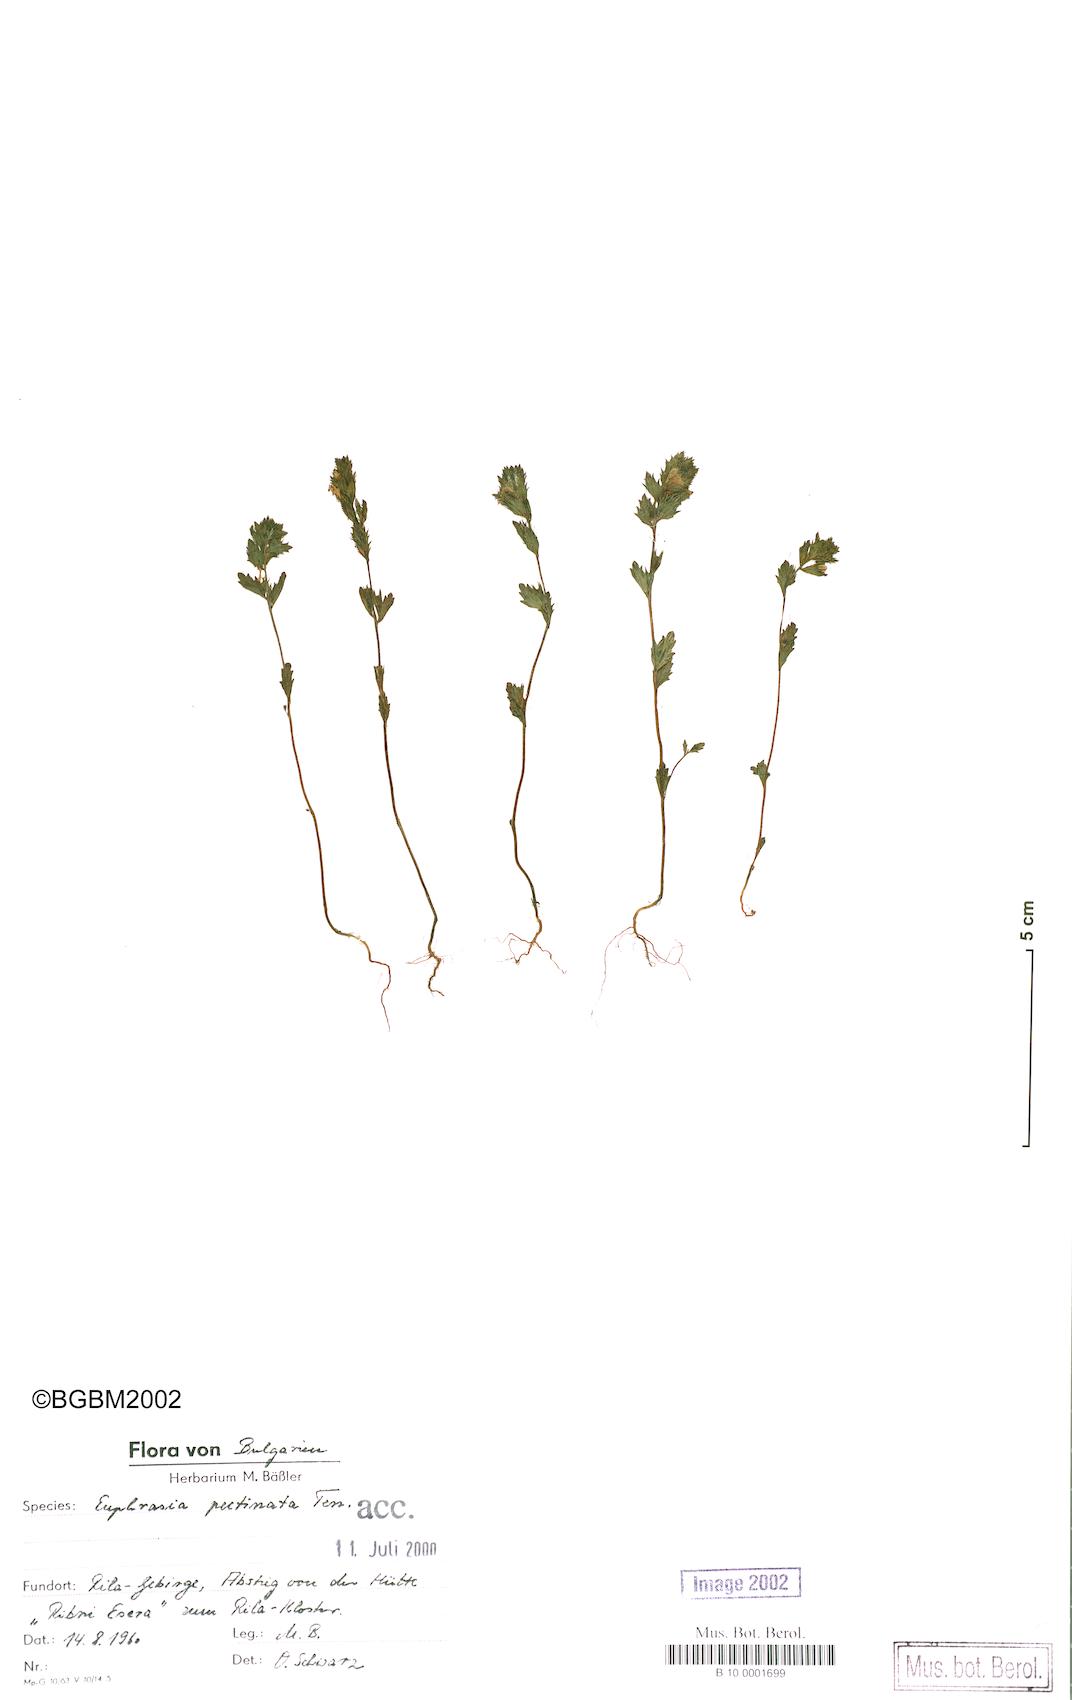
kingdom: Plantae
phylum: Tracheophyta
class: Magnoliopsida
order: Lamiales
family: Orobanchaceae
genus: Euphrasia
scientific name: Euphrasia pectinata
